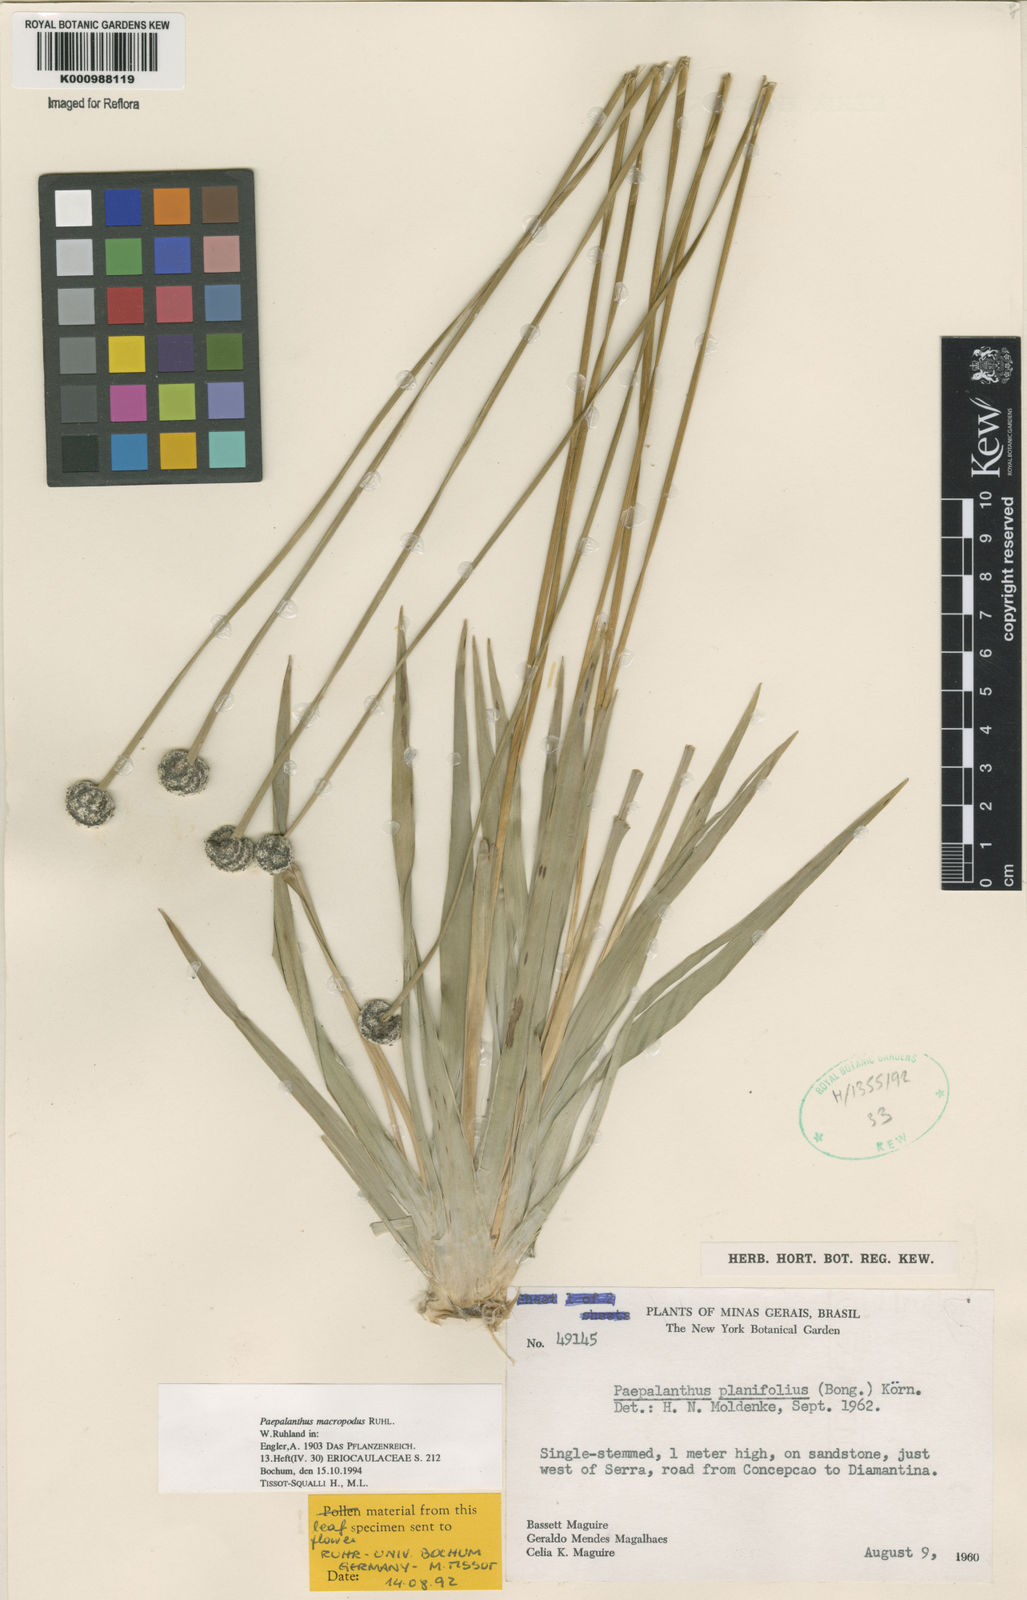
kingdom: Plantae
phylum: Tracheophyta
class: Liliopsida
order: Poales
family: Eriocaulaceae
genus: Paepalanthus
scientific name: Paepalanthus macropodus
